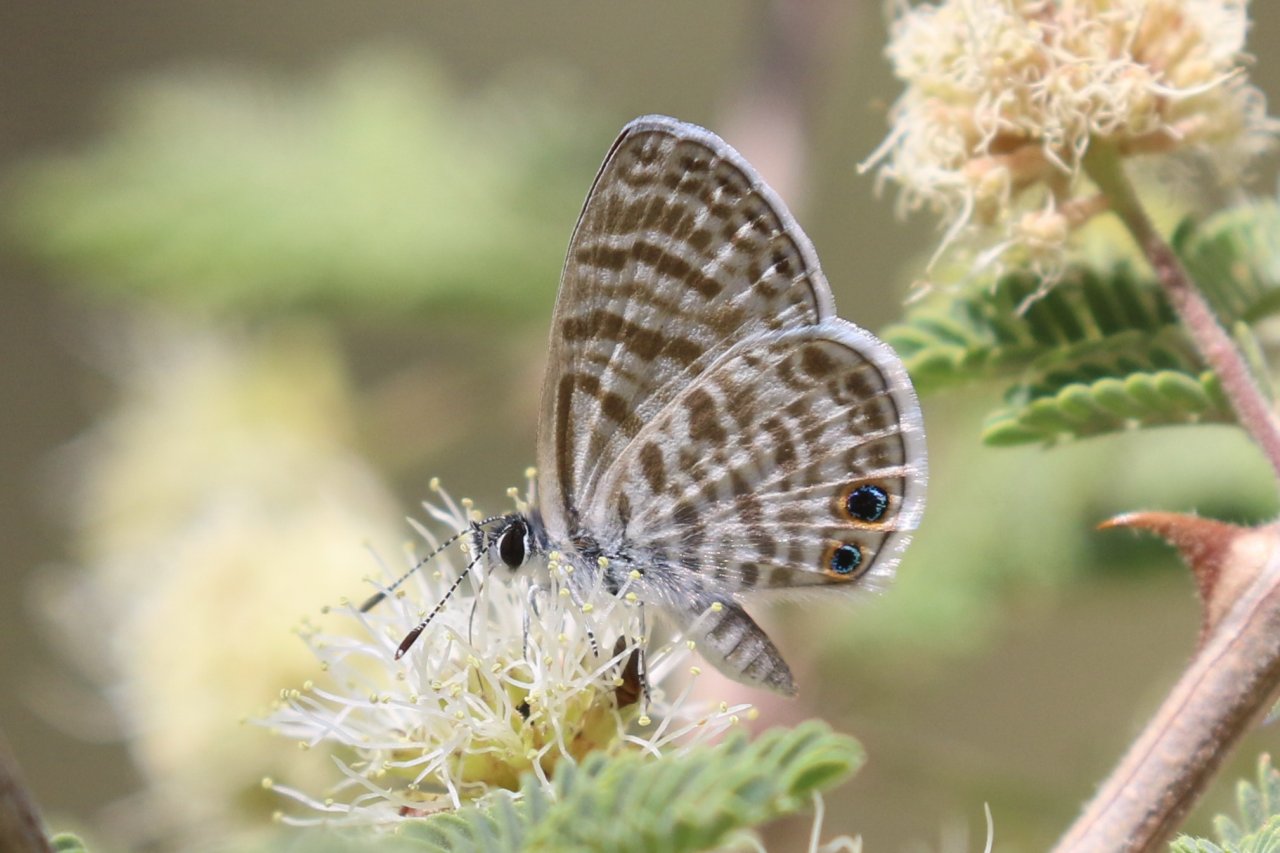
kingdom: Animalia
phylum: Arthropoda
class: Insecta
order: Lepidoptera
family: Lycaenidae
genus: Leptotes
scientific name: Leptotes marina
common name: Marine Blue
